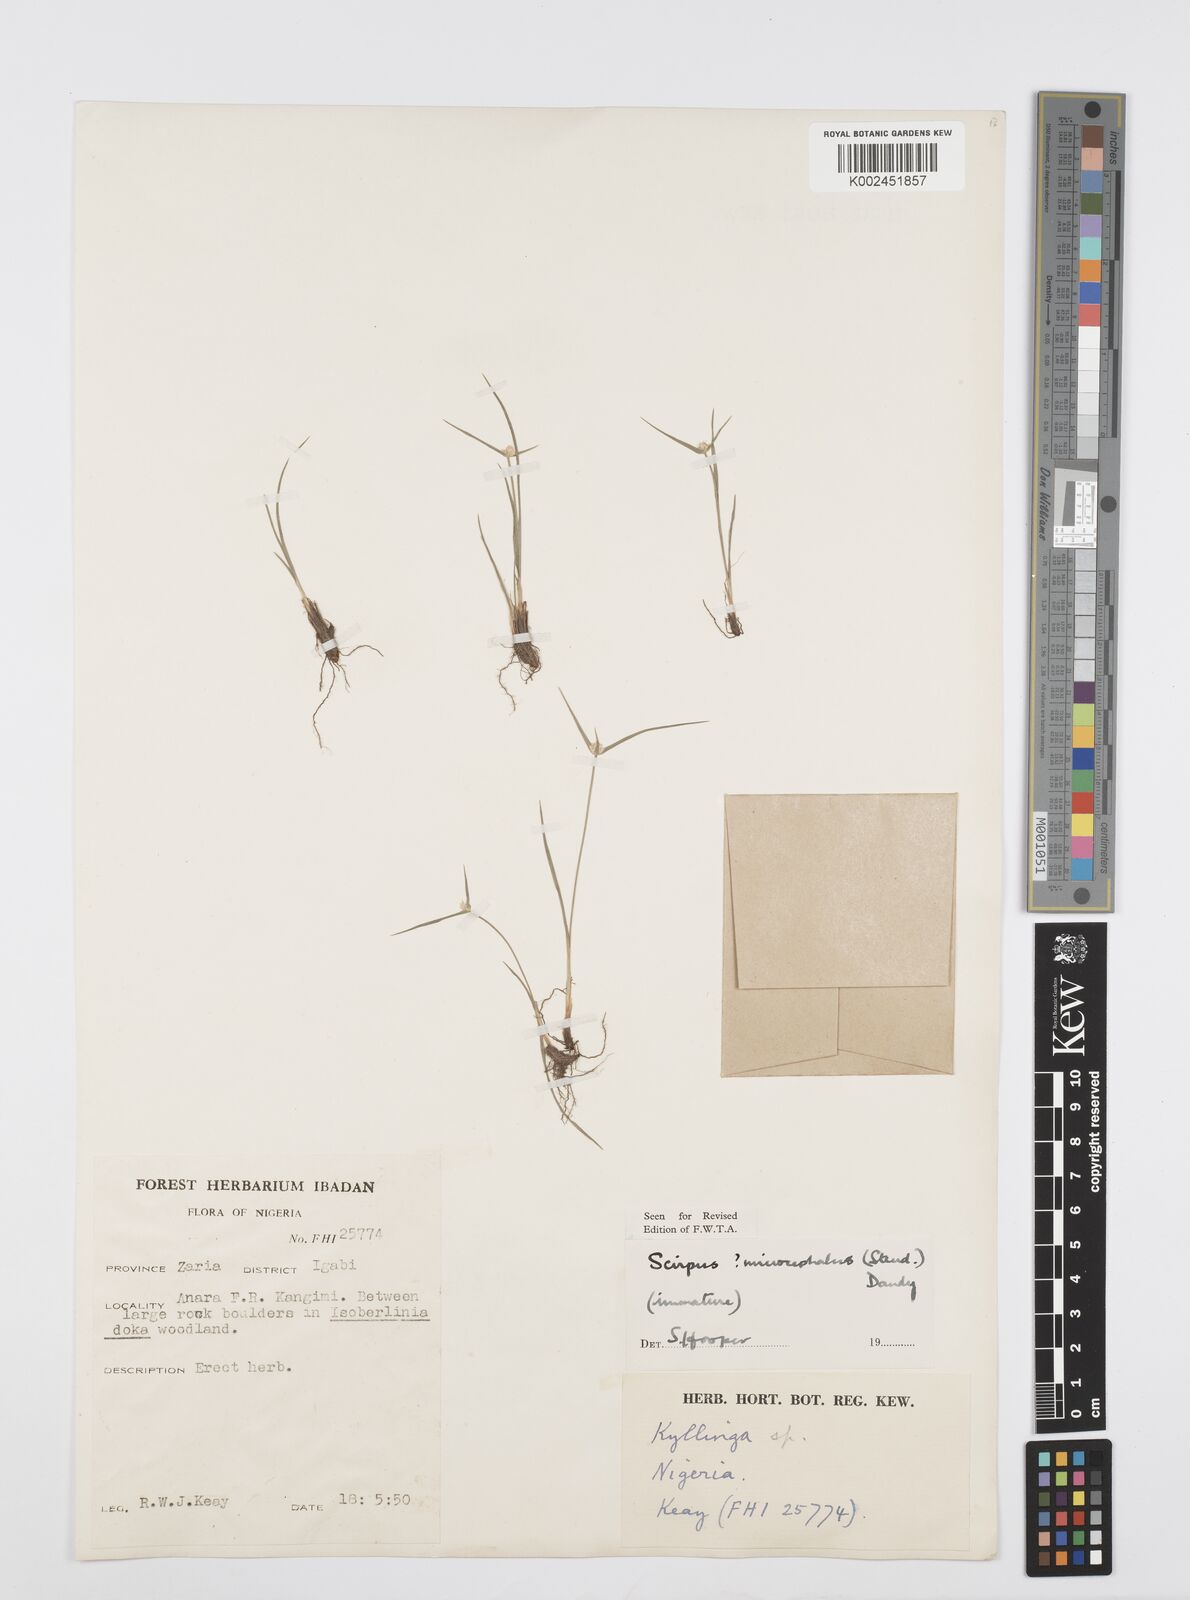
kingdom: Plantae
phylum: Tracheophyta
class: Liliopsida
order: Poales
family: Cyperaceae
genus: Cyperus
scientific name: Cyperus microcephalus
